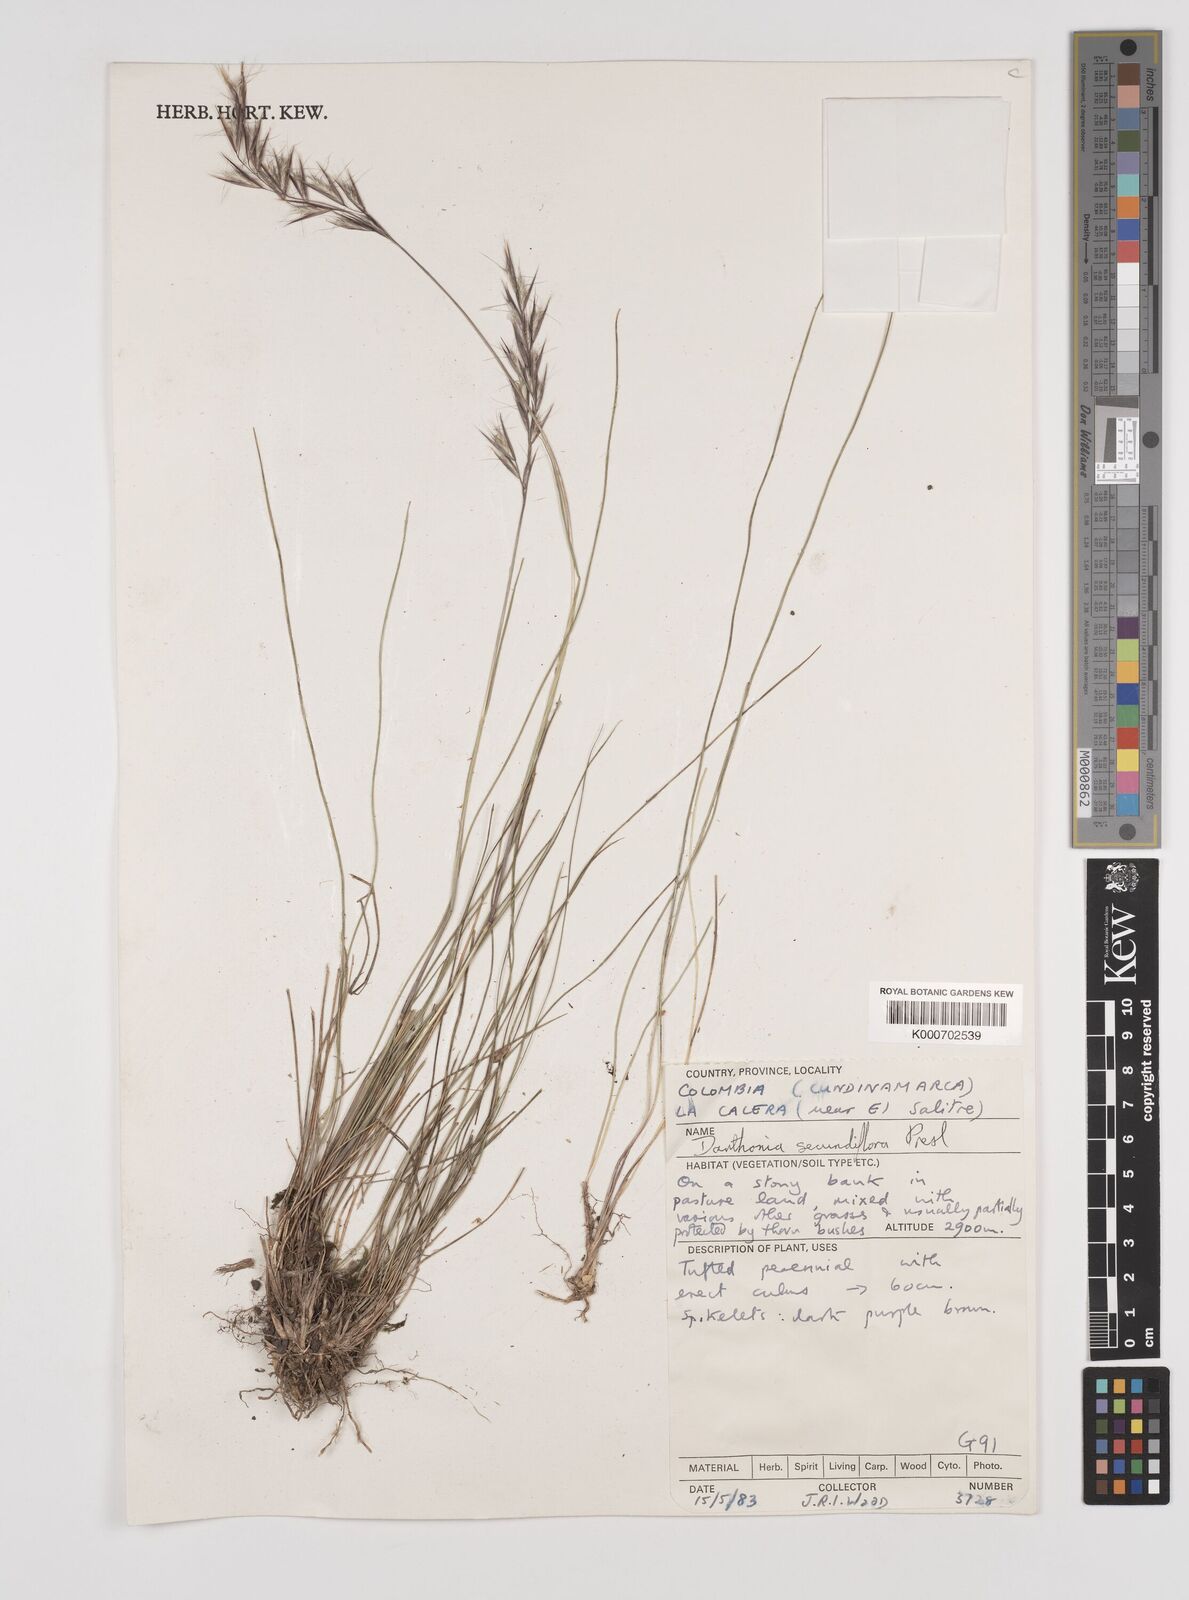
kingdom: Plantae
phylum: Tracheophyta
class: Liliopsida
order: Poales
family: Poaceae
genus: Danthonia
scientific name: Danthonia secundiflora
